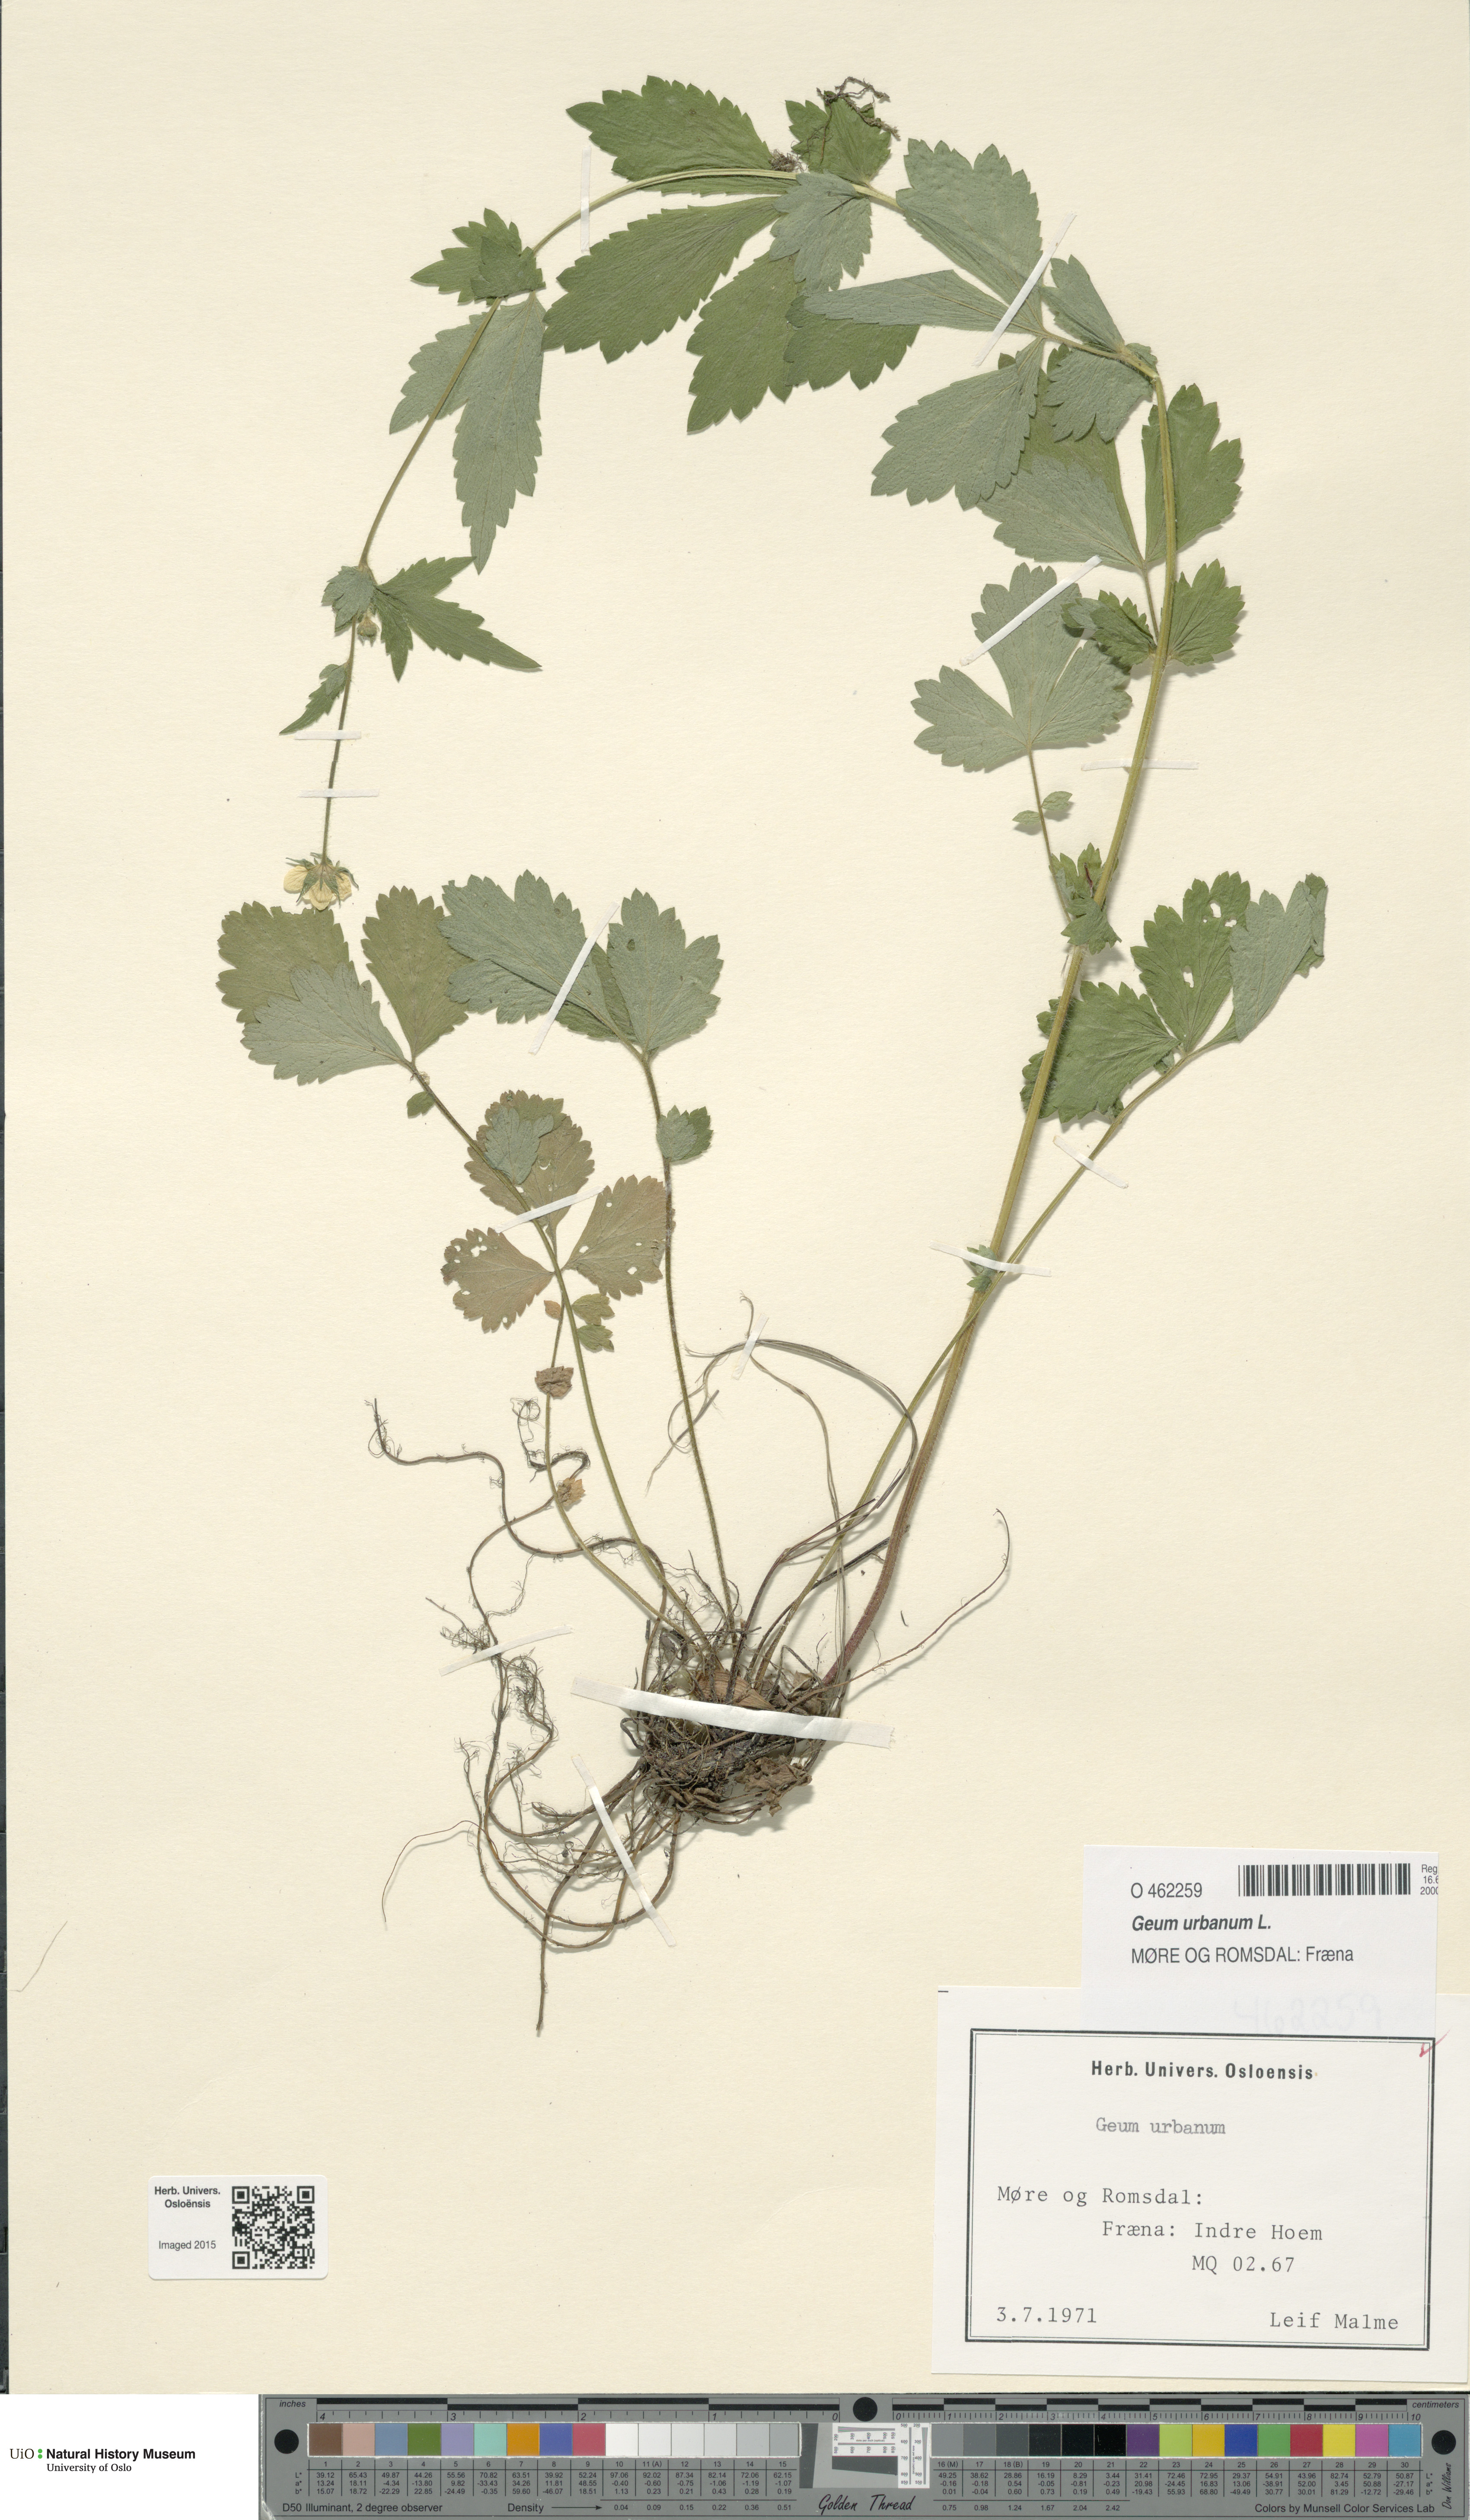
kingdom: Plantae
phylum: Tracheophyta
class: Magnoliopsida
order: Rosales
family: Rosaceae
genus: Geum
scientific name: Geum urbanum
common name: Wood avens
